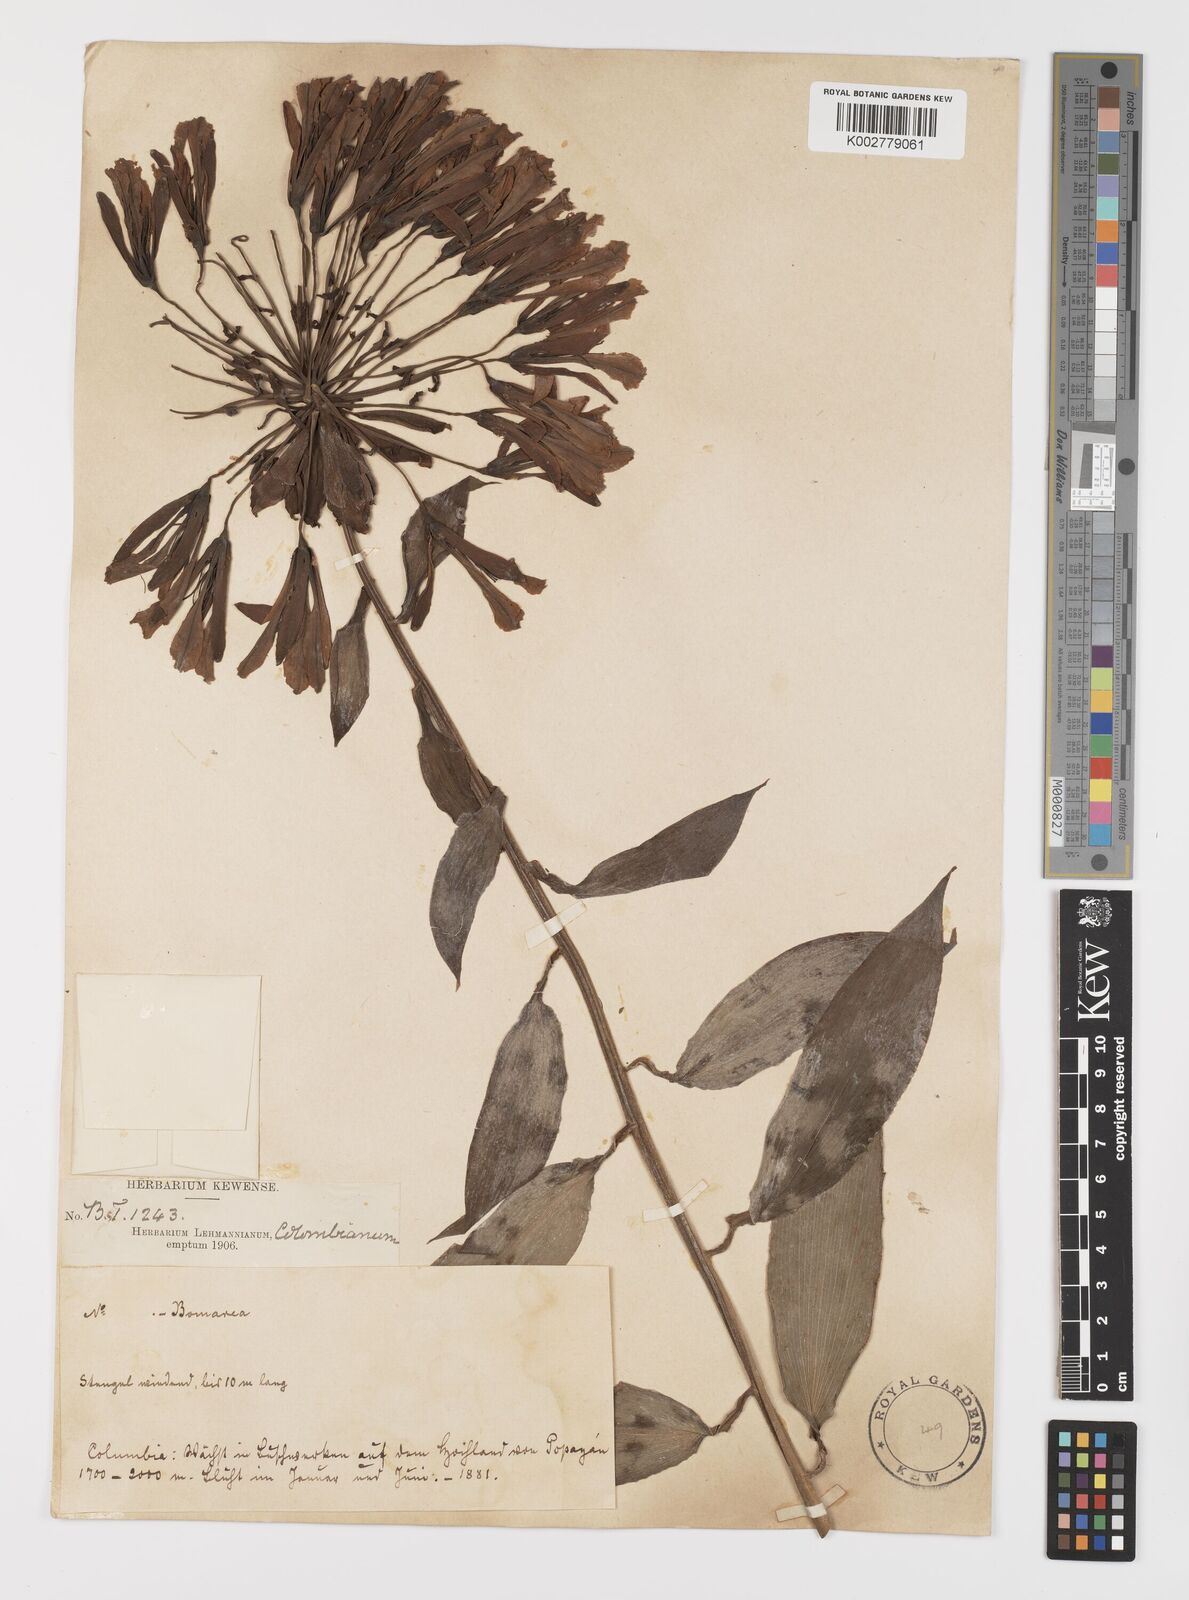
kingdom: Plantae
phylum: Tracheophyta
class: Liliopsida
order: Liliales
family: Alstroemeriaceae
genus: Bomarea
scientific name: Bomarea
